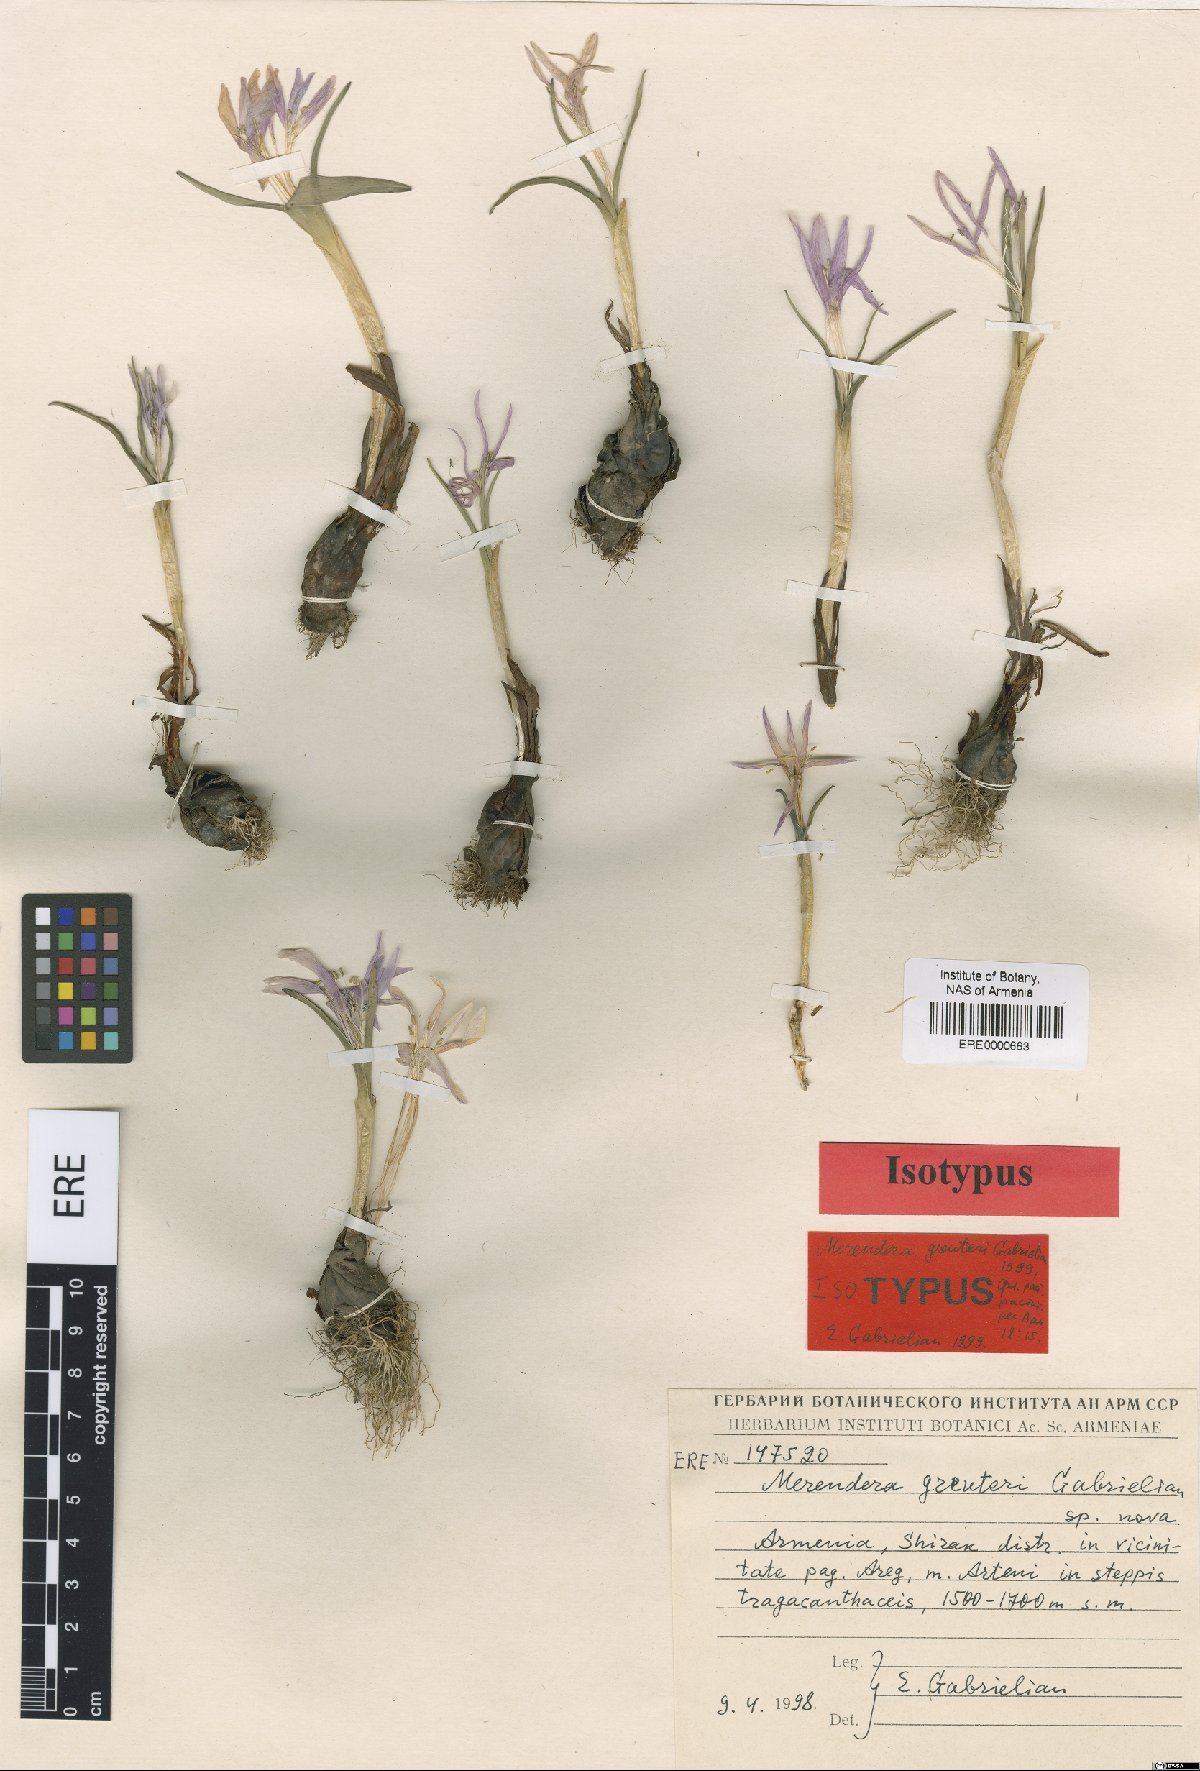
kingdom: Plantae
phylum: Tracheophyta
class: Liliopsida
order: Liliales
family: Colchicaceae
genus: Colchicum
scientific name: Colchicum trigynum
